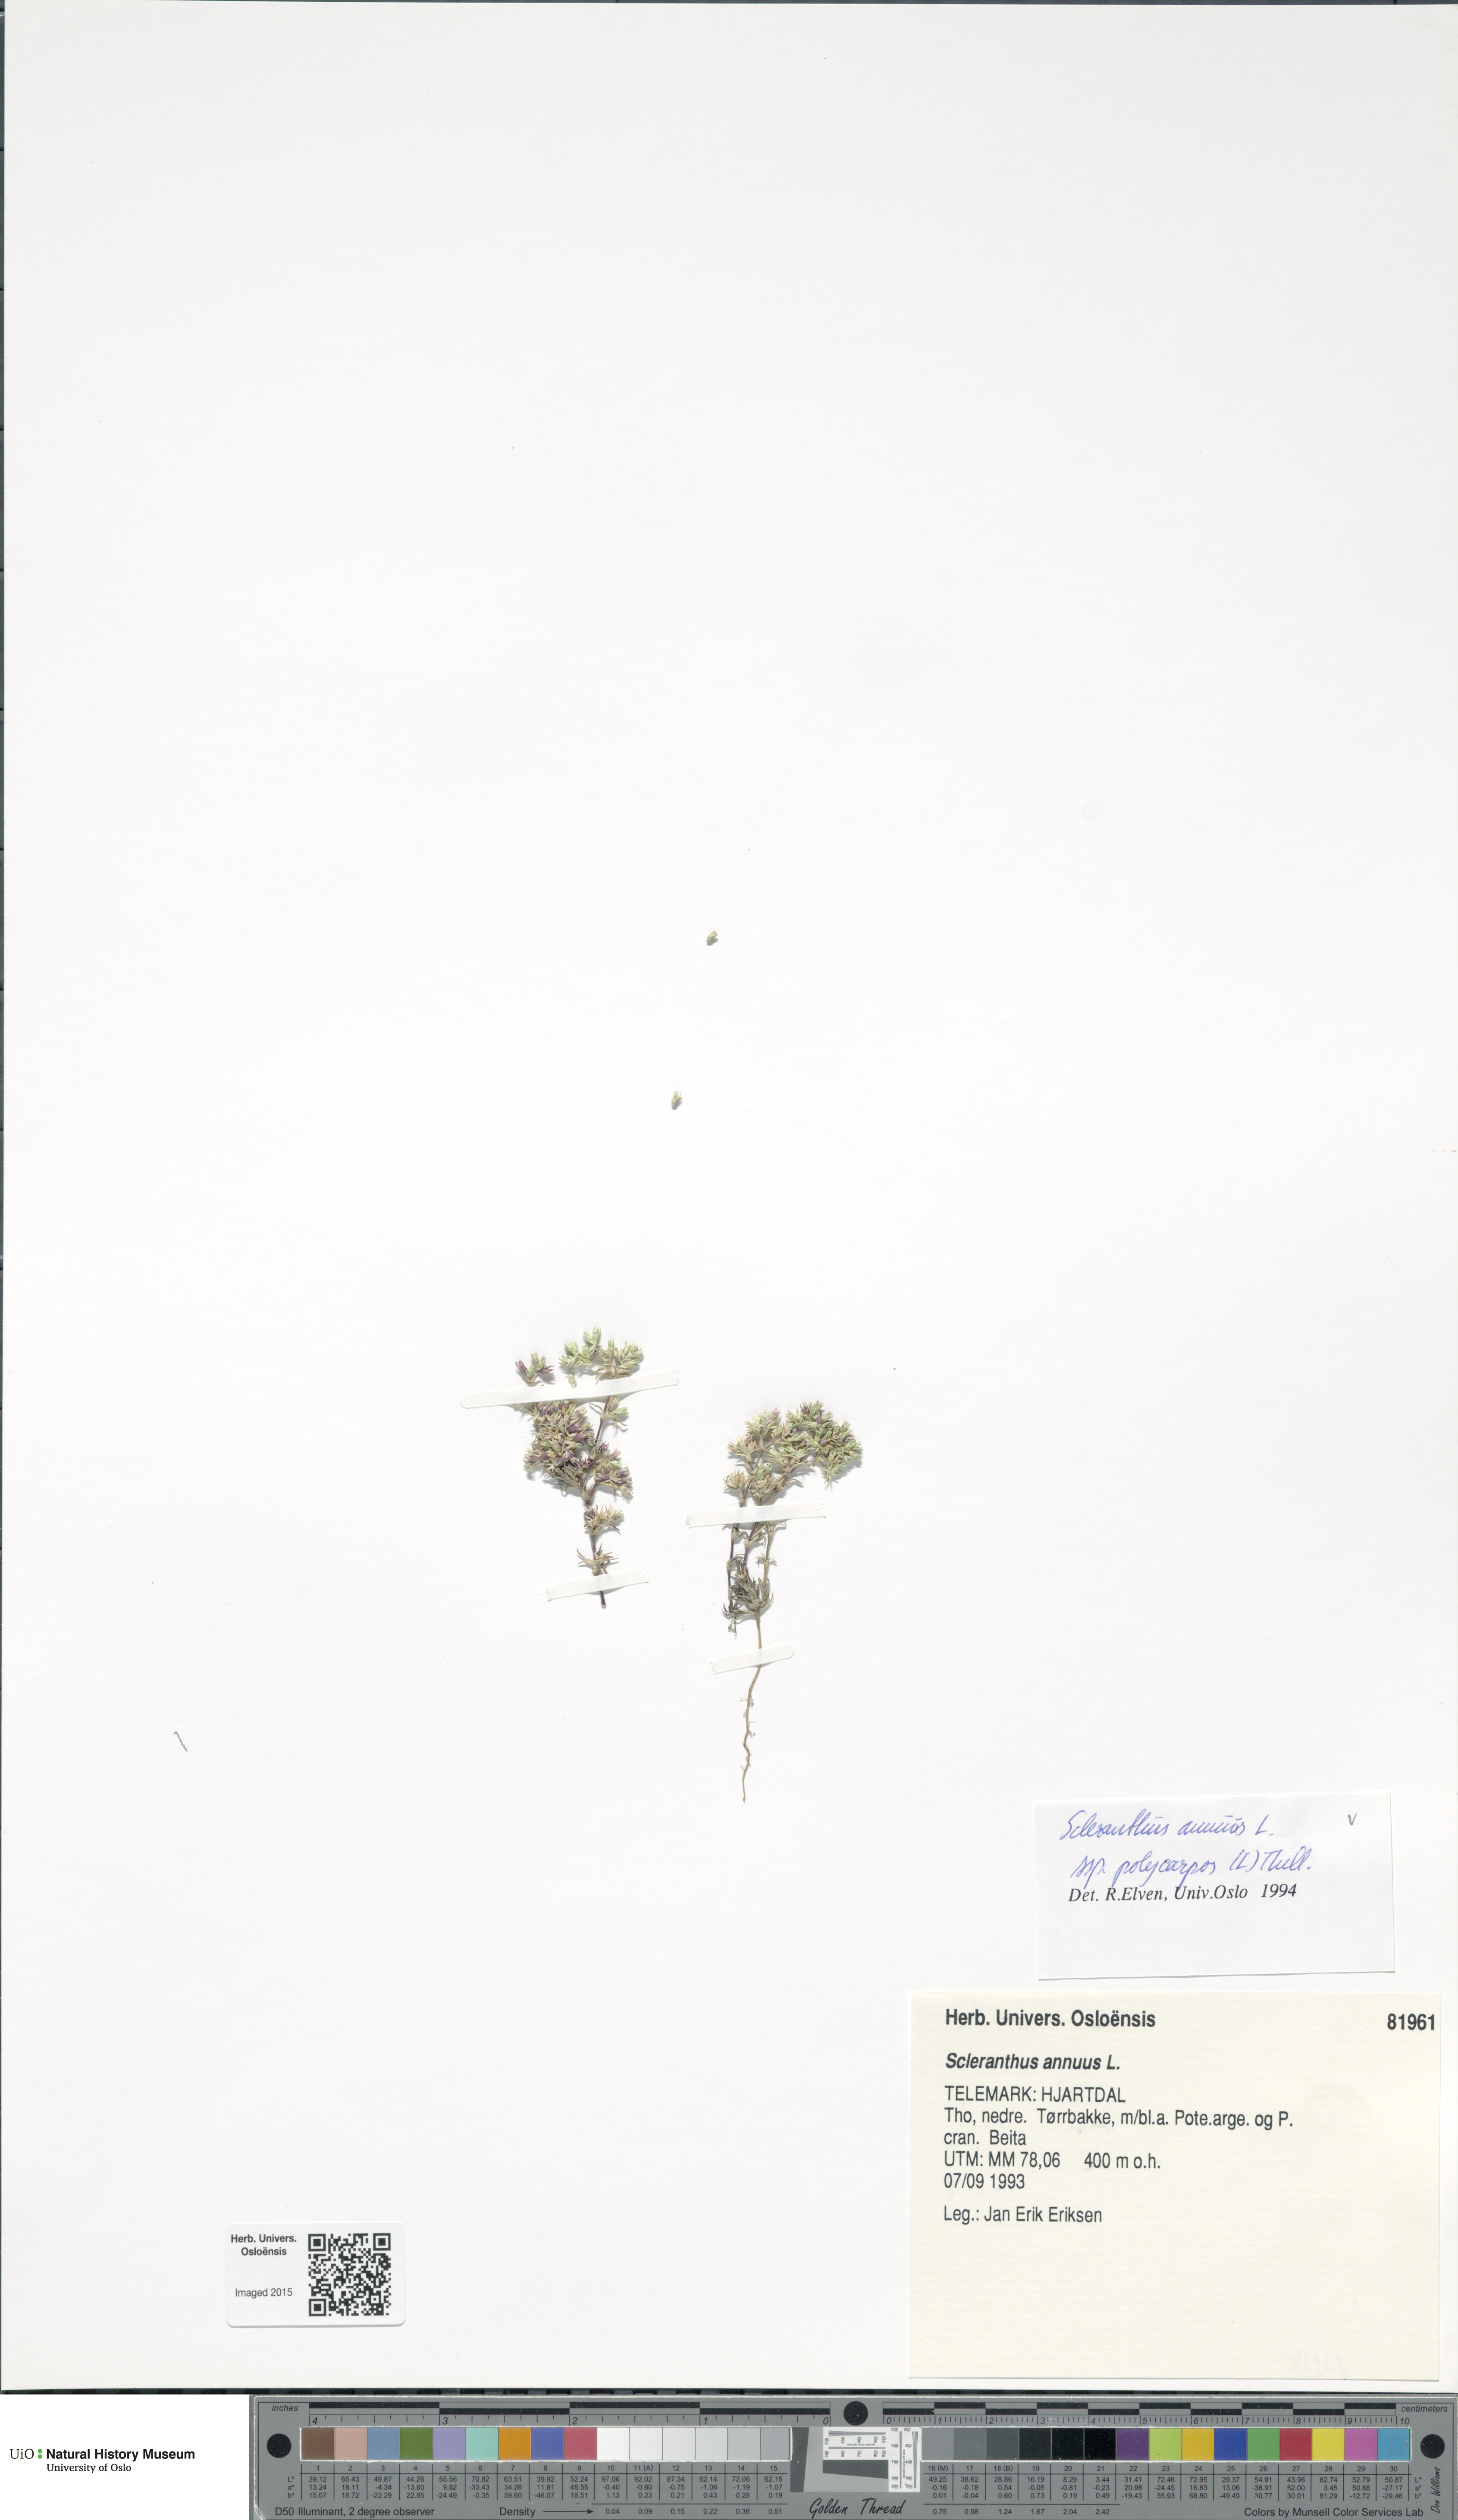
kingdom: Plantae
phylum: Tracheophyta
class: Magnoliopsida
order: Caryophyllales
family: Caryophyllaceae
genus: Scleranthus
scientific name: Scleranthus annuus
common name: Annual knawel
